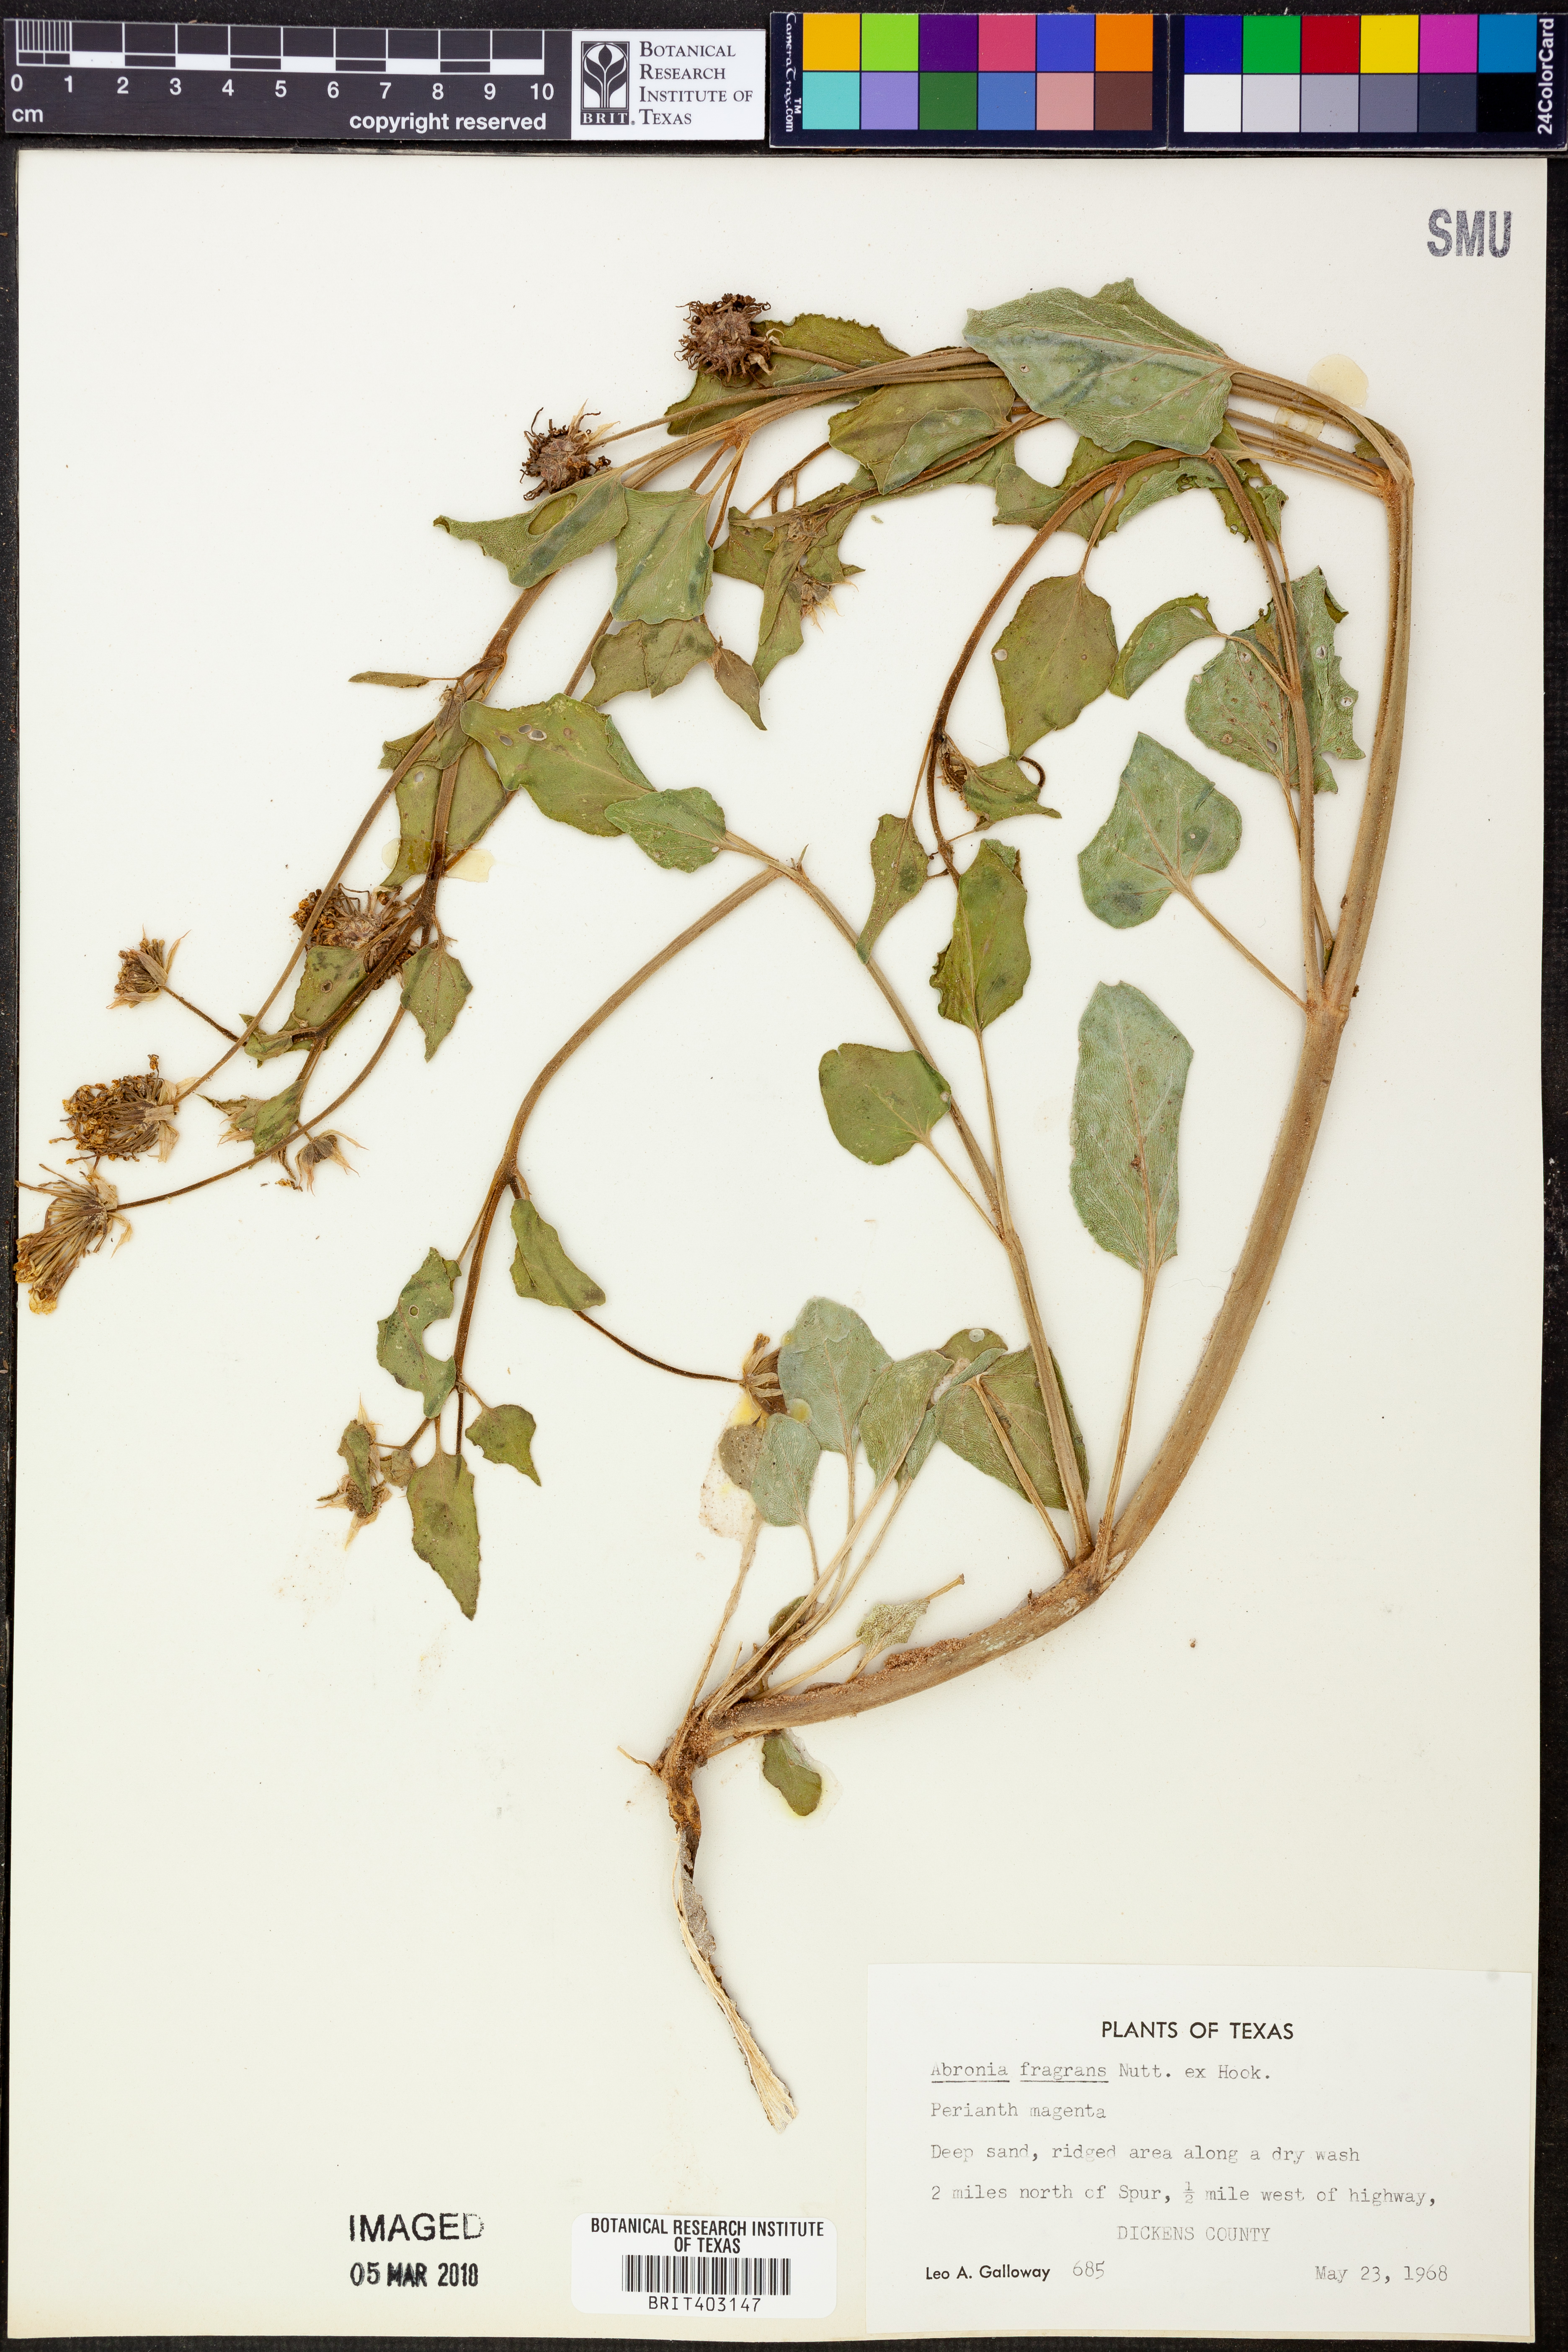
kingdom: Plantae
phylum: Tracheophyta
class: Magnoliopsida
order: Caryophyllales
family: Nyctaginaceae
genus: Abronia
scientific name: Abronia fragrans
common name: Fragrant sand-verbena
